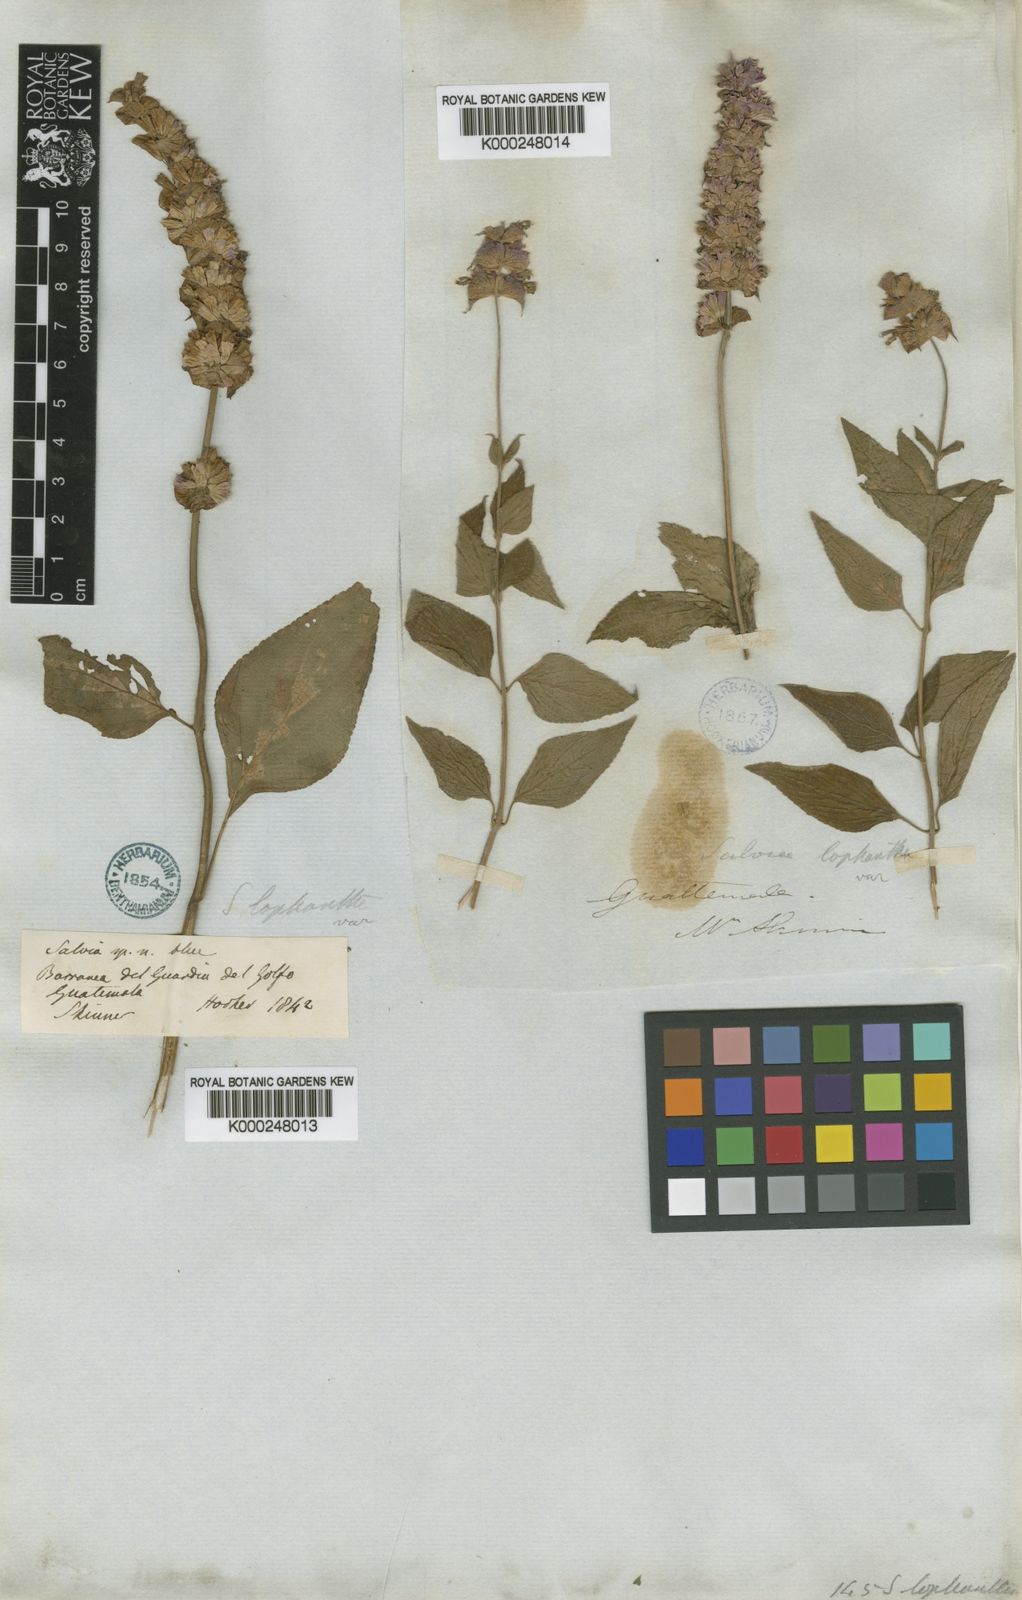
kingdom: Plantae
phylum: Tracheophyta
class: Magnoliopsida
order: Lamiales
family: Lamiaceae
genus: Salvia
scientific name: Salvia mocinoi
